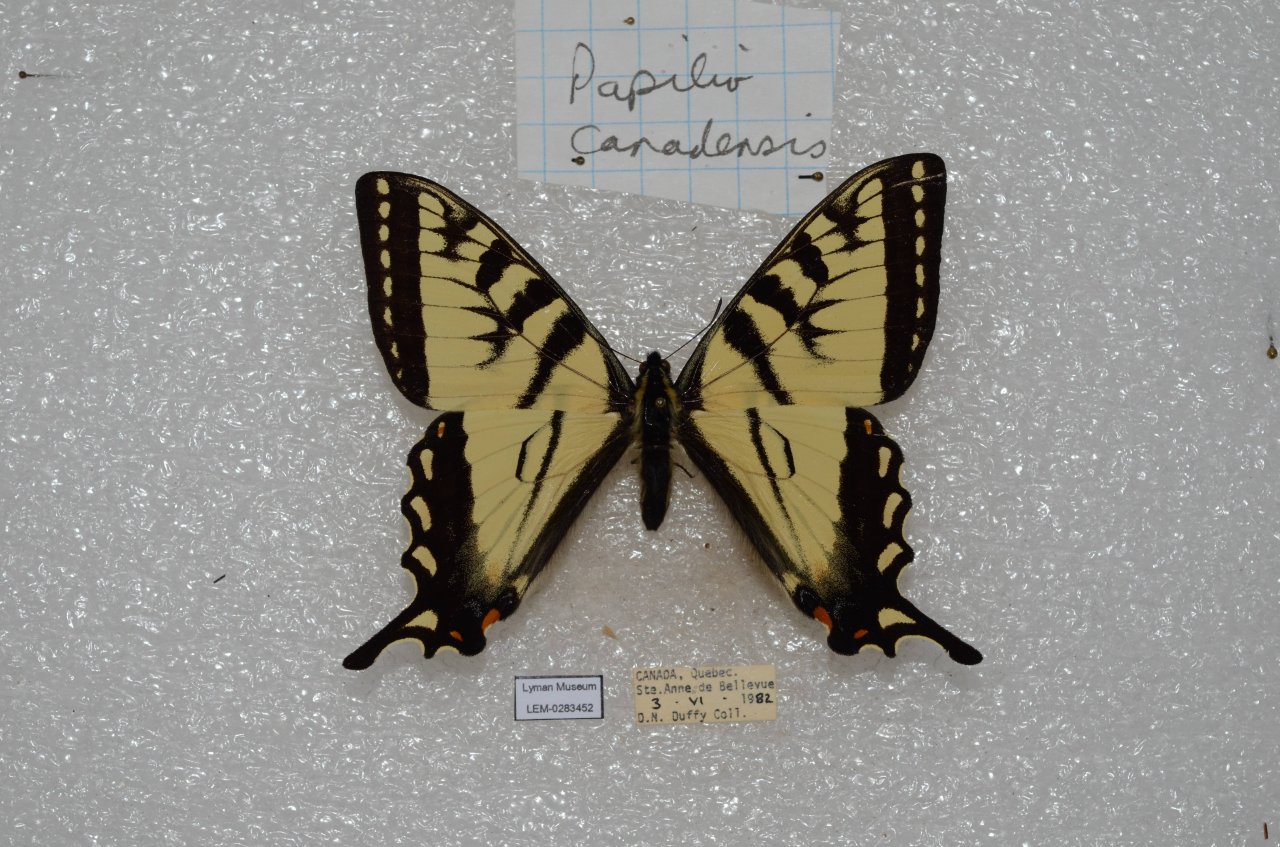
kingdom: Animalia
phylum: Arthropoda
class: Insecta
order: Lepidoptera
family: Papilionidae
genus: Pterourus
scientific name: Pterourus canadensis
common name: Canadian Tiger Swallowtail
